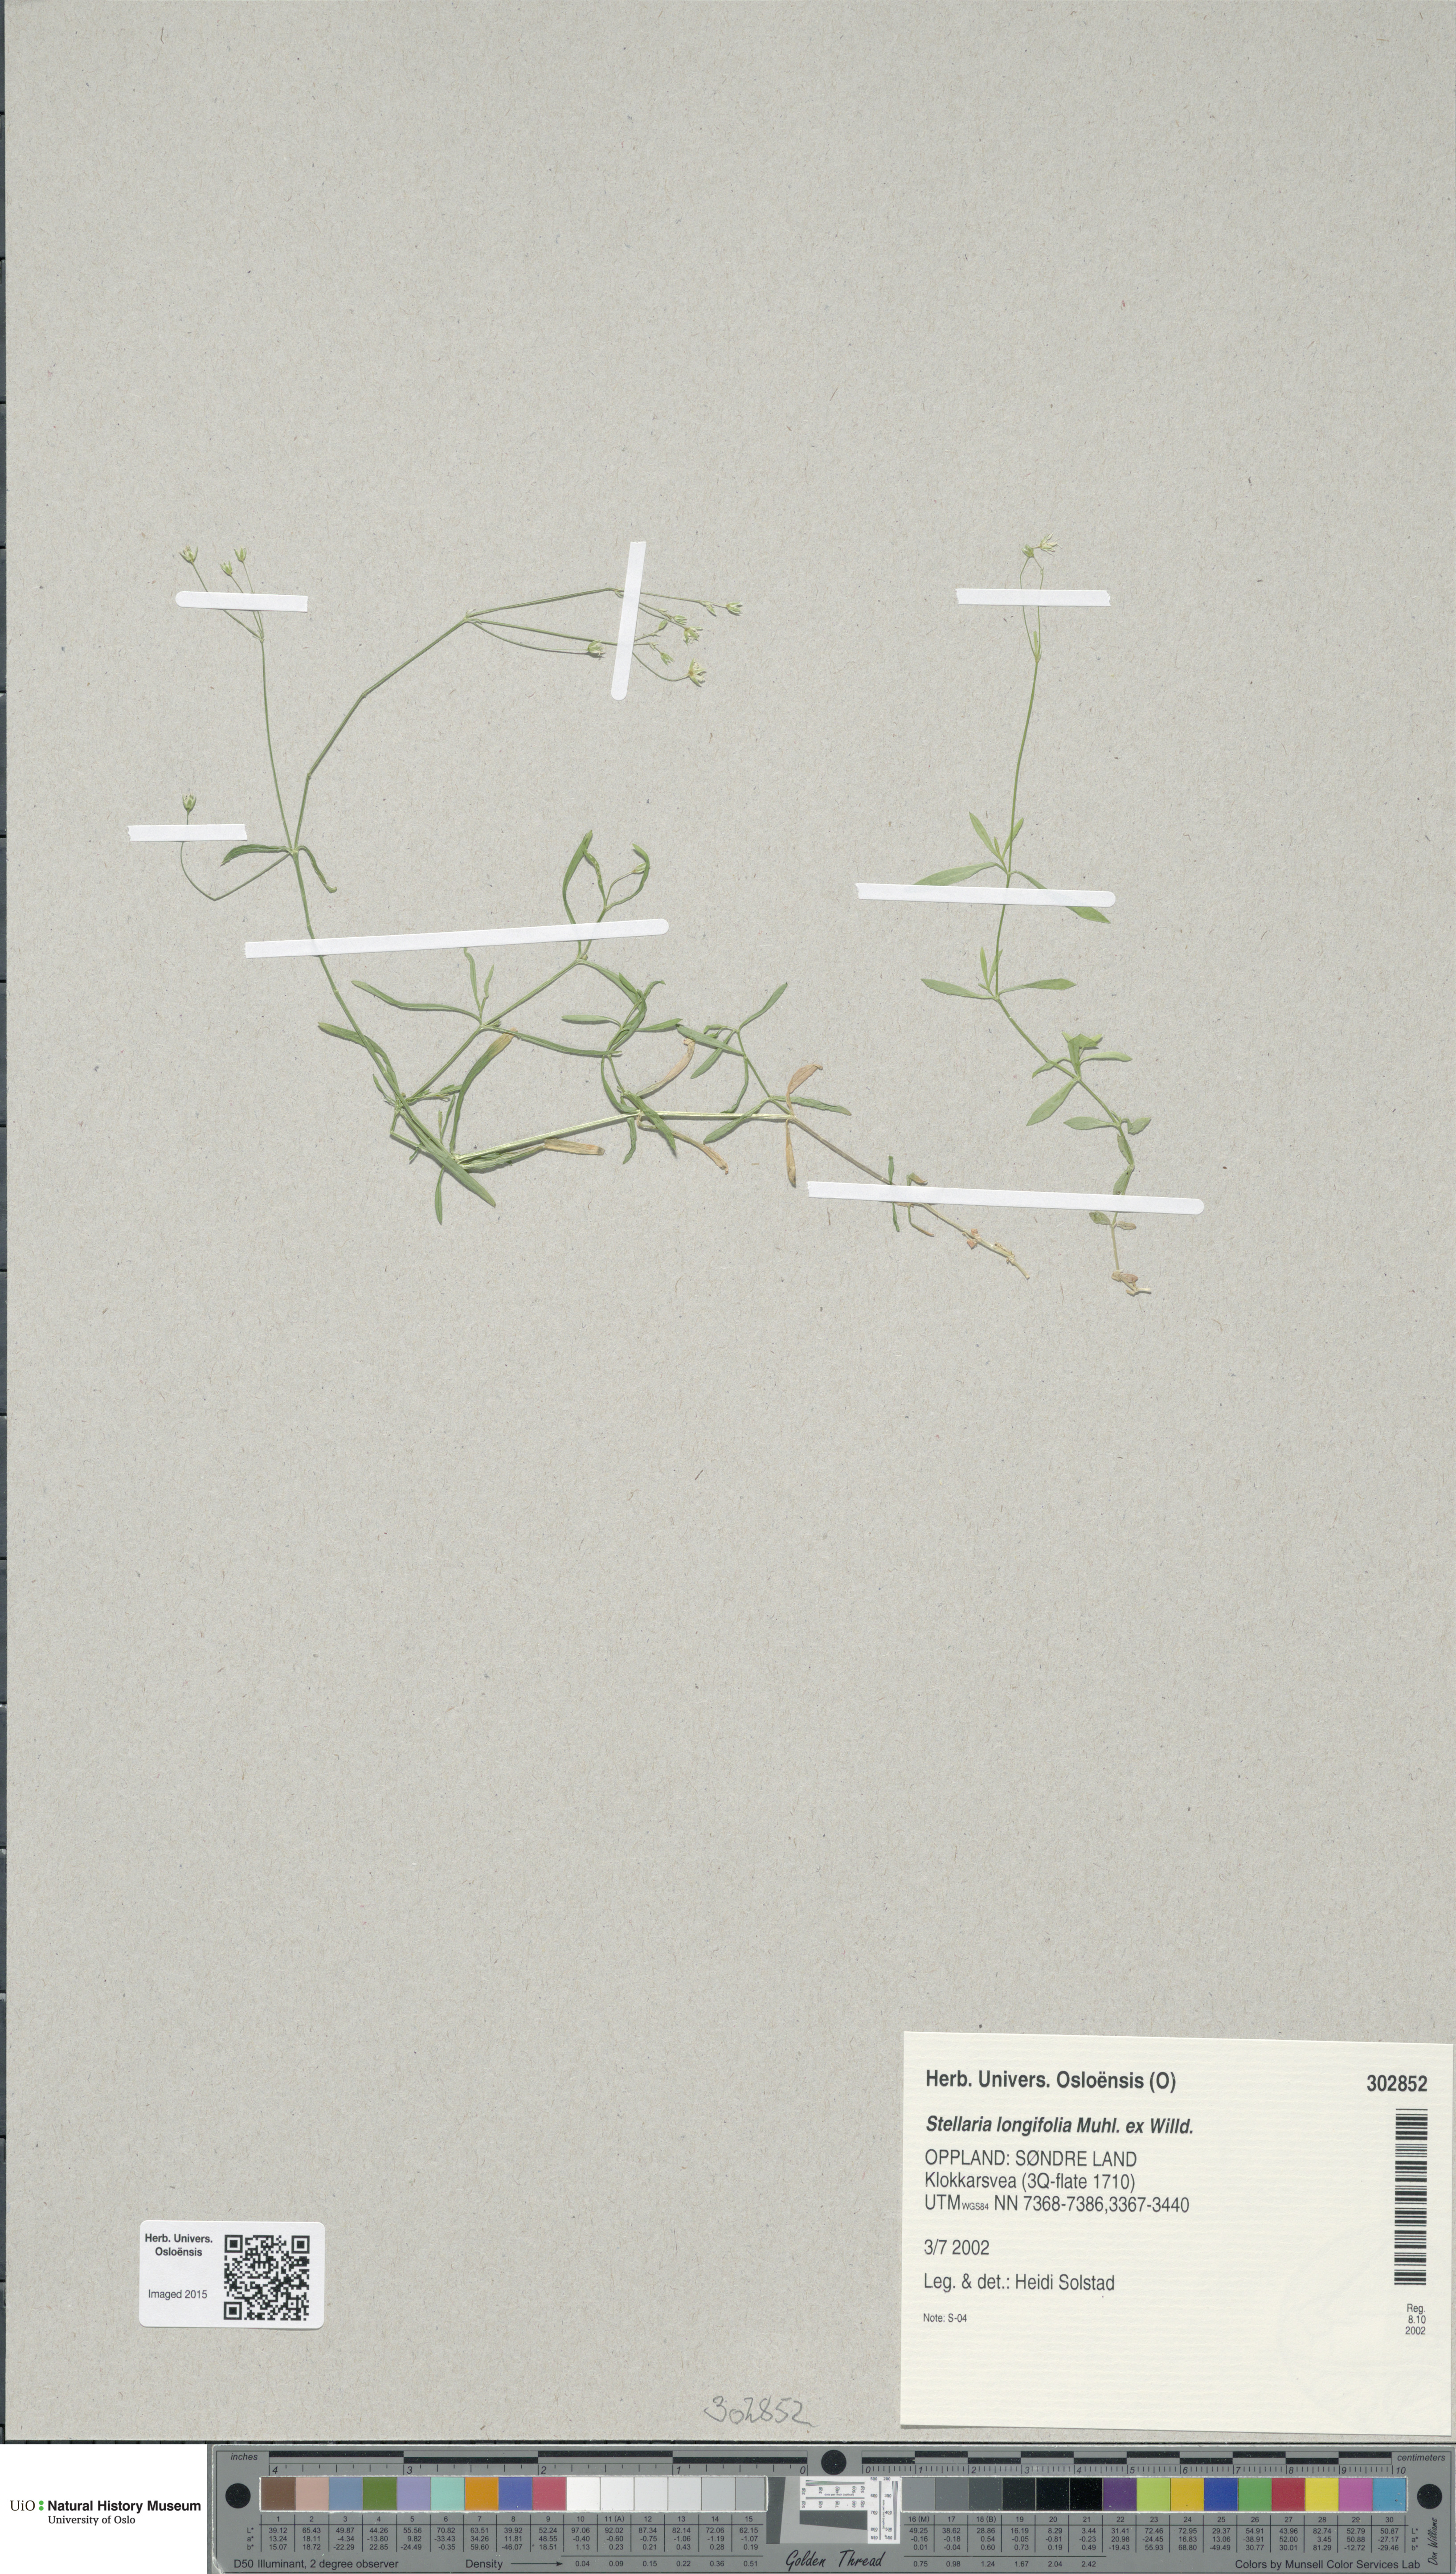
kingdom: Plantae
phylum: Tracheophyta
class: Magnoliopsida
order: Caryophyllales
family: Caryophyllaceae
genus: Stellaria
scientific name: Stellaria longifolia
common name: Long-leaved chickweed
